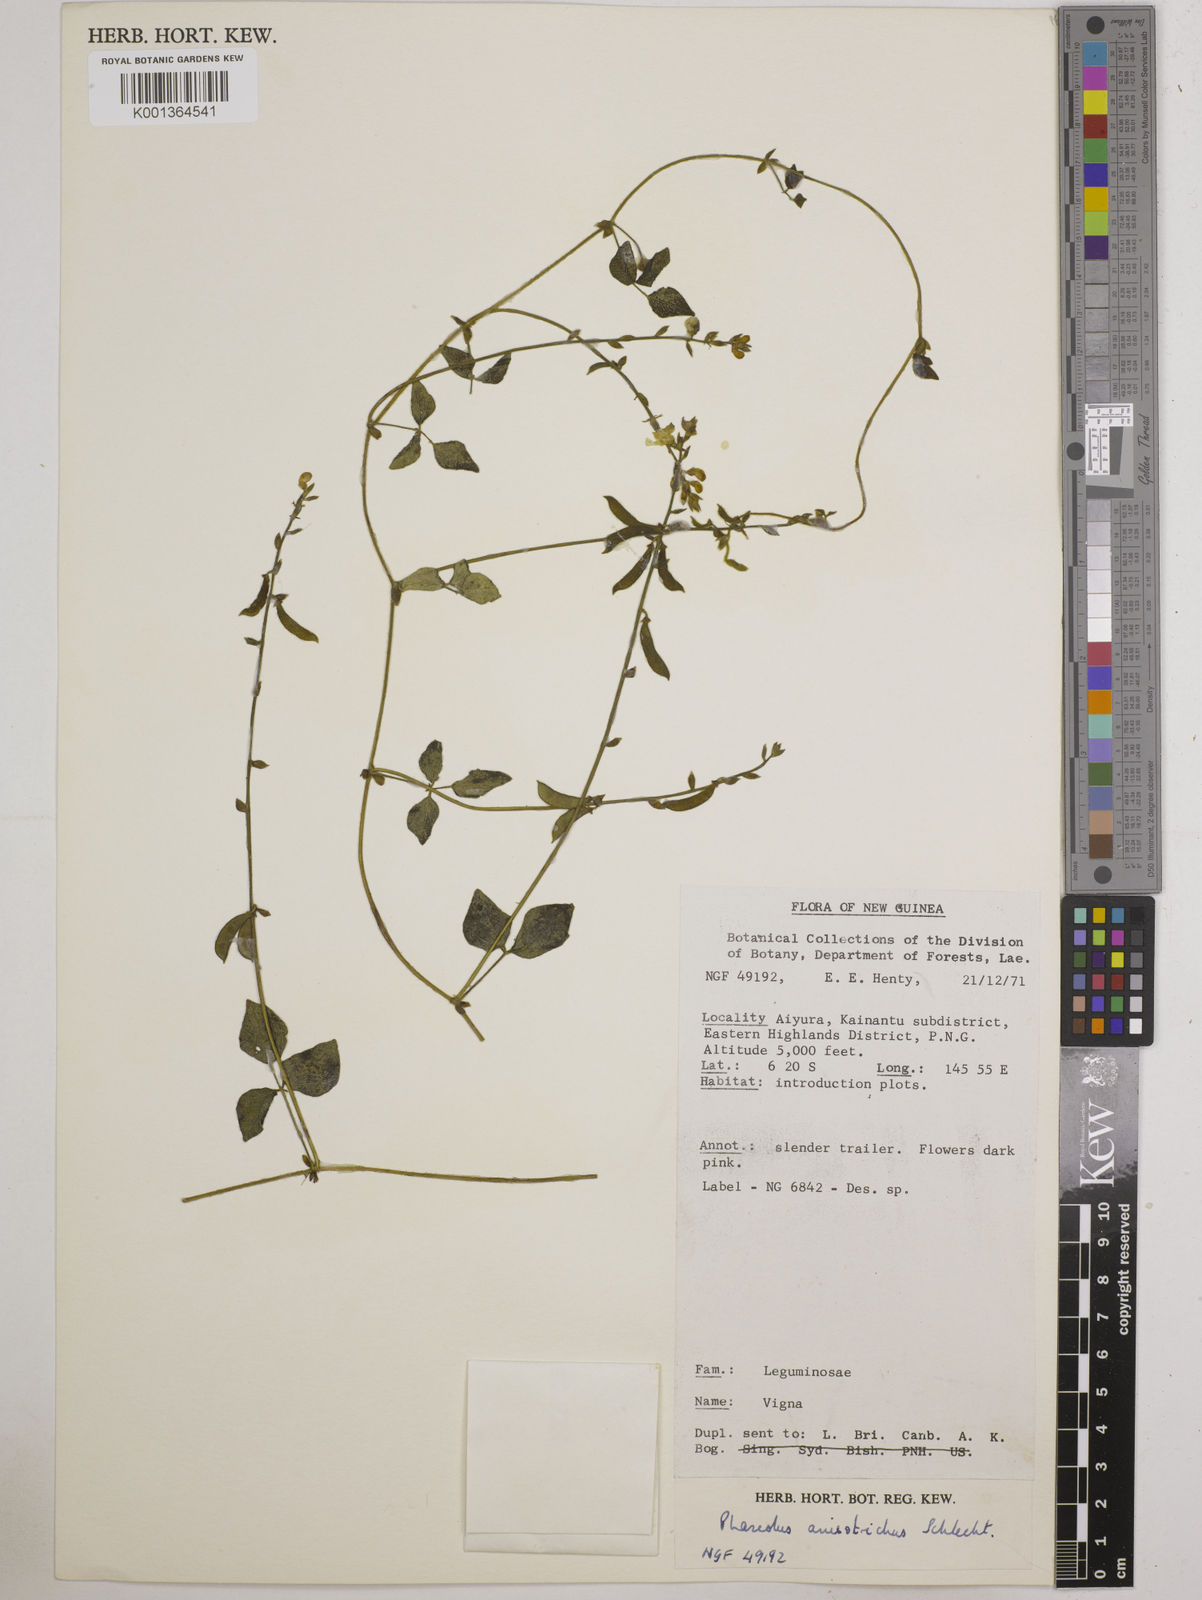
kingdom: Plantae
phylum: Tracheophyta
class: Magnoliopsida
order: Fabales
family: Fabaceae
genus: Phaseolus
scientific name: Phaseolus
